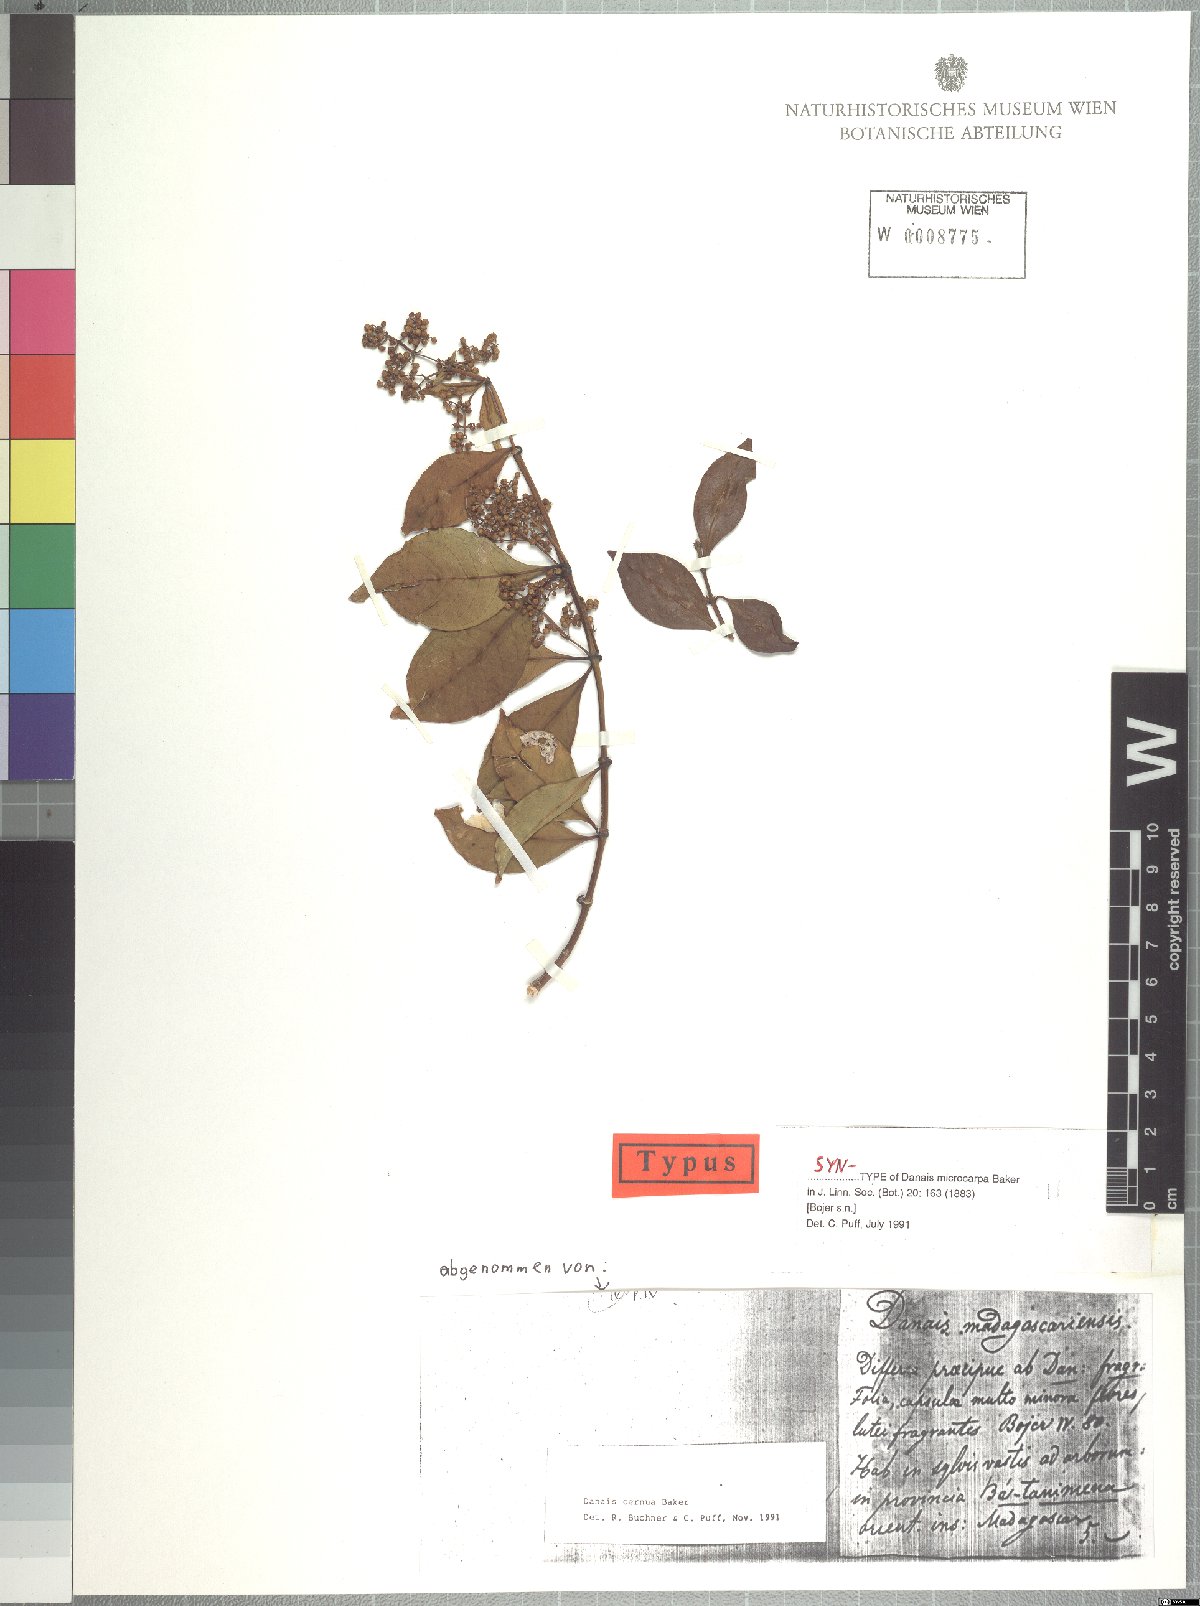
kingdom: Plantae
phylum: Tracheophyta
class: Magnoliopsida
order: Gentianales
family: Rubiaceae
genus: Danais
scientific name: Danais microcarpa
